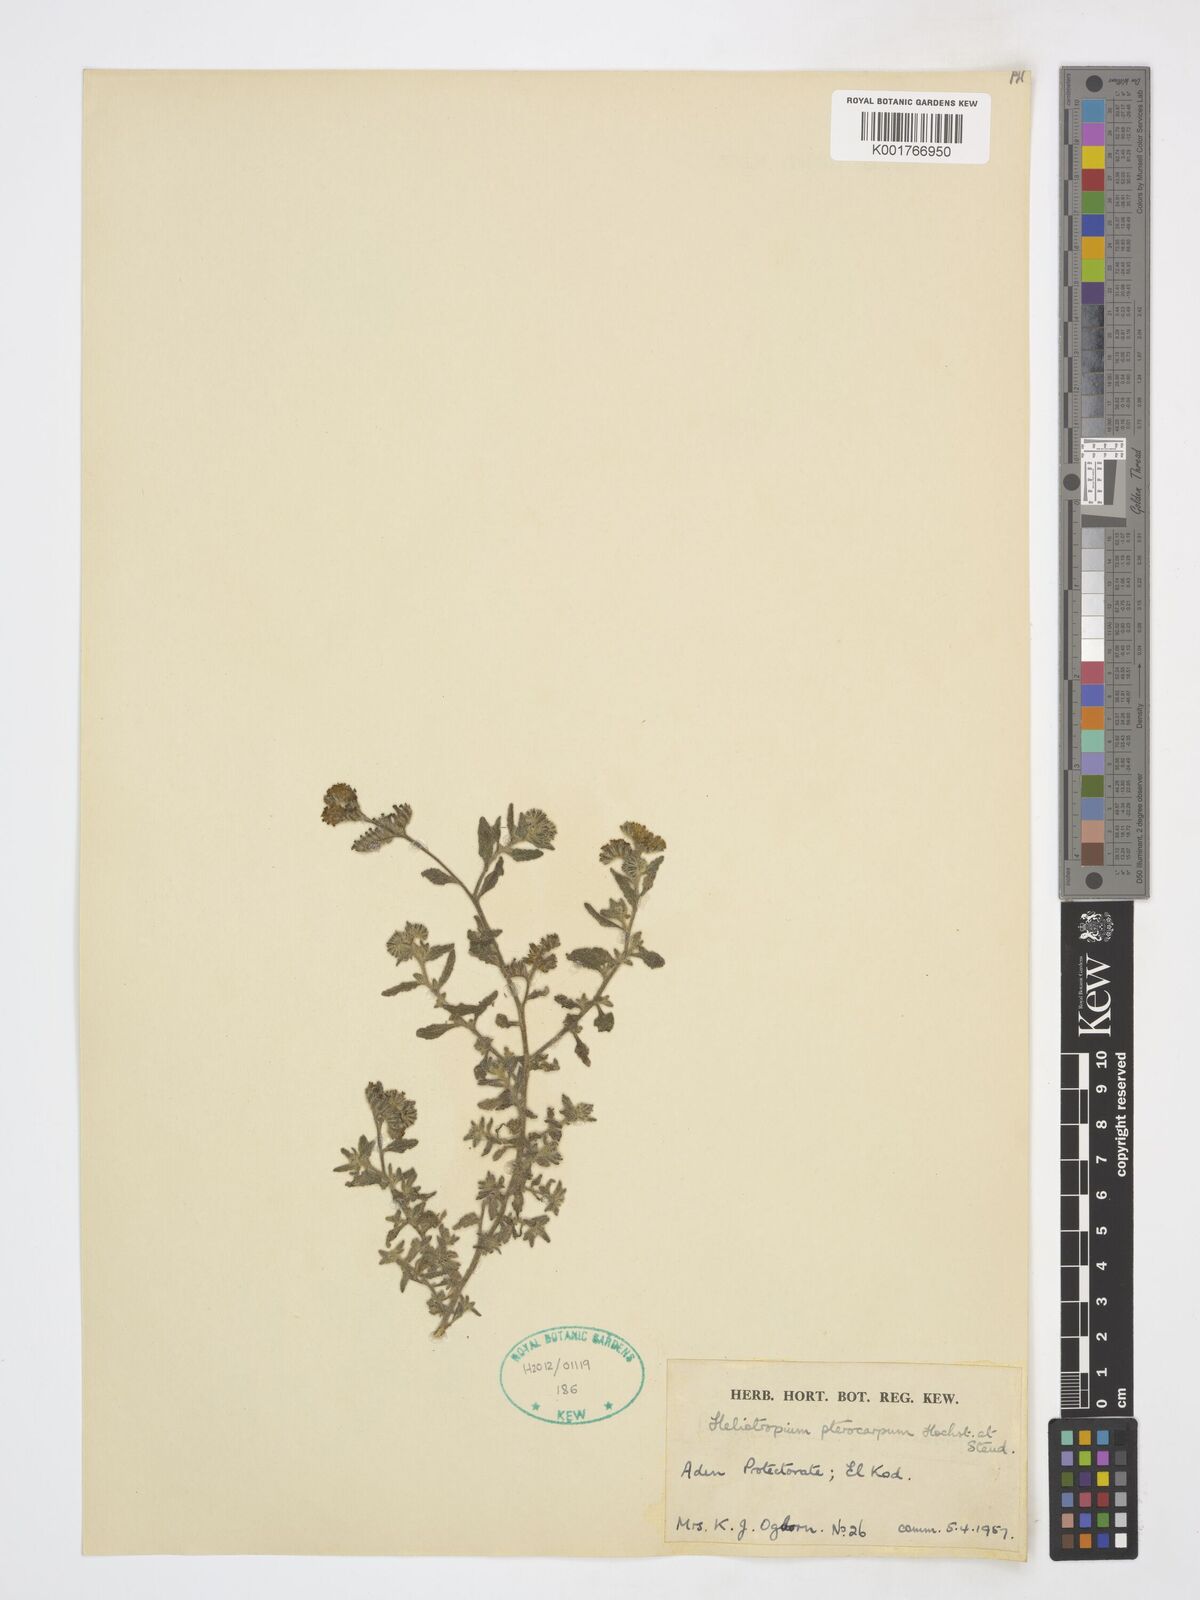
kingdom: Plantae
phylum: Tracheophyta
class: Magnoliopsida
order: Boraginales
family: Heliotropiaceae
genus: Heliotropium
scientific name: Heliotropium pterocarpum
